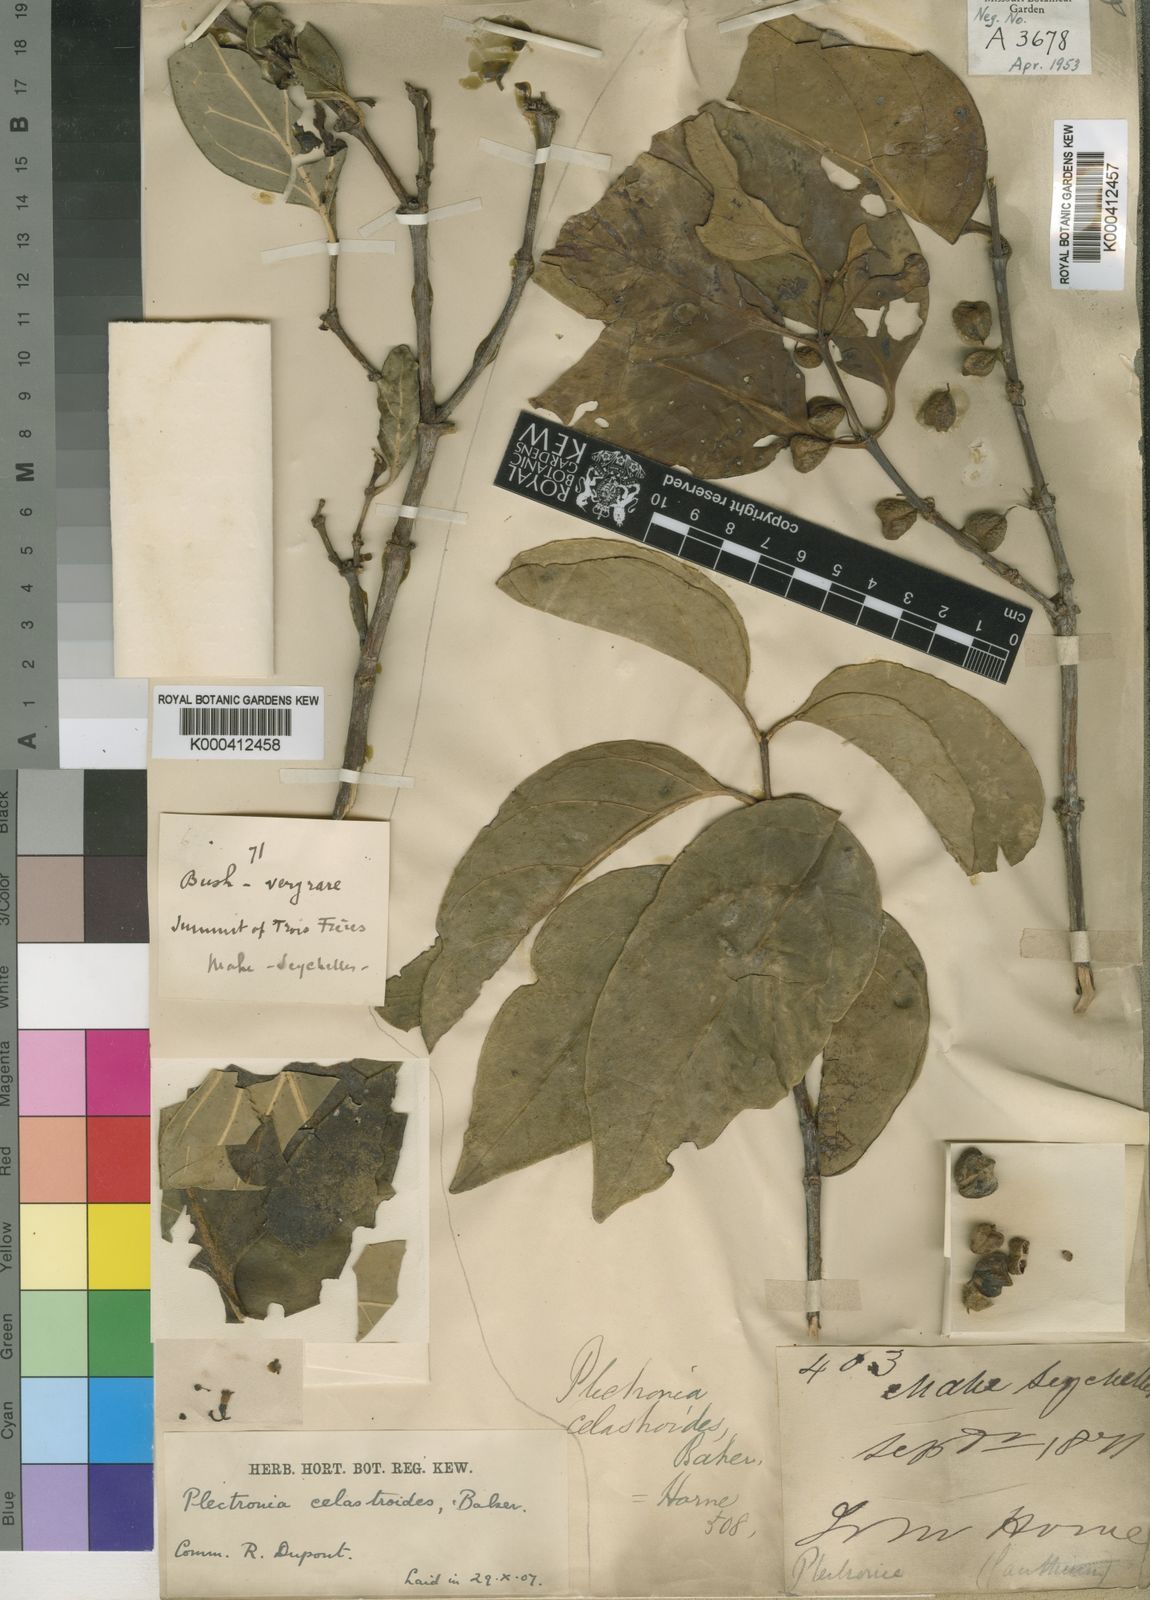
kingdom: Plantae
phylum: Tracheophyta
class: Magnoliopsida
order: Gentianales
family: Rubiaceae
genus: Peponidium
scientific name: Peponidium celastroides
